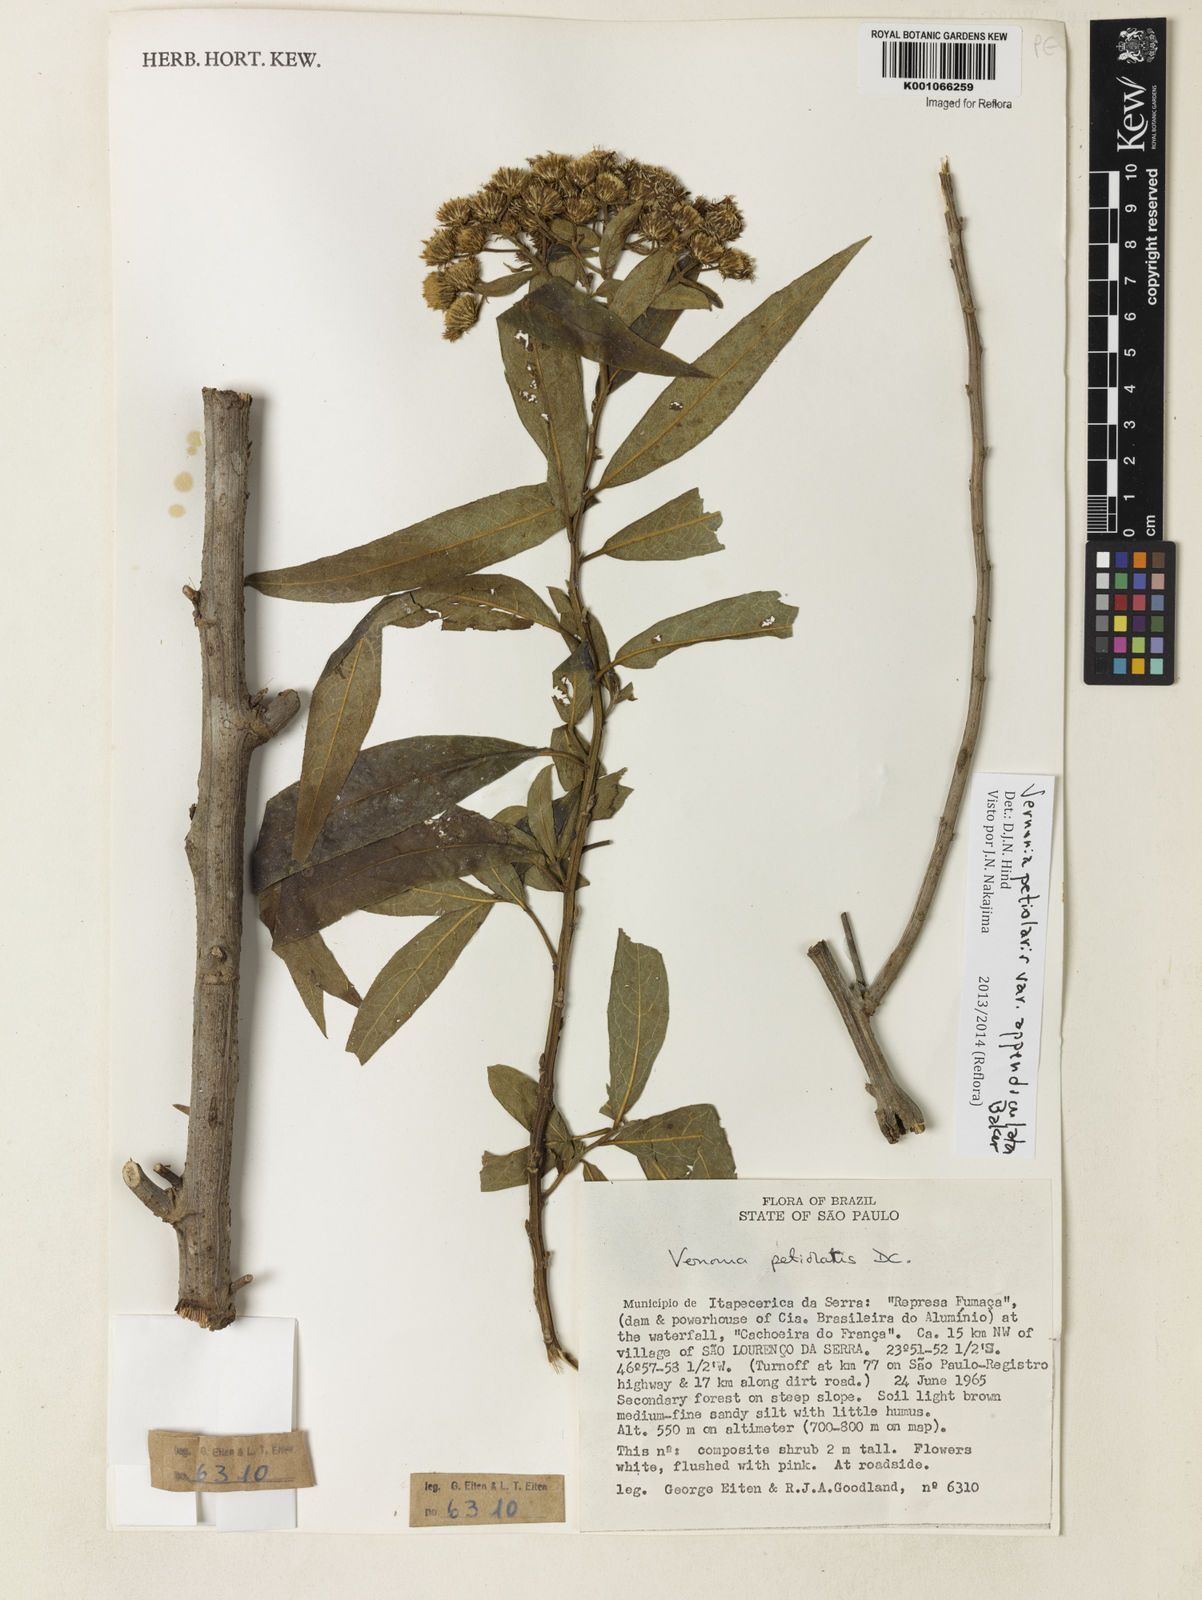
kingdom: Plantae
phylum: Tracheophyta
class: Magnoliopsida
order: Asterales
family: Asteraceae
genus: Vernonanthura
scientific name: Vernonanthura petiolaris
